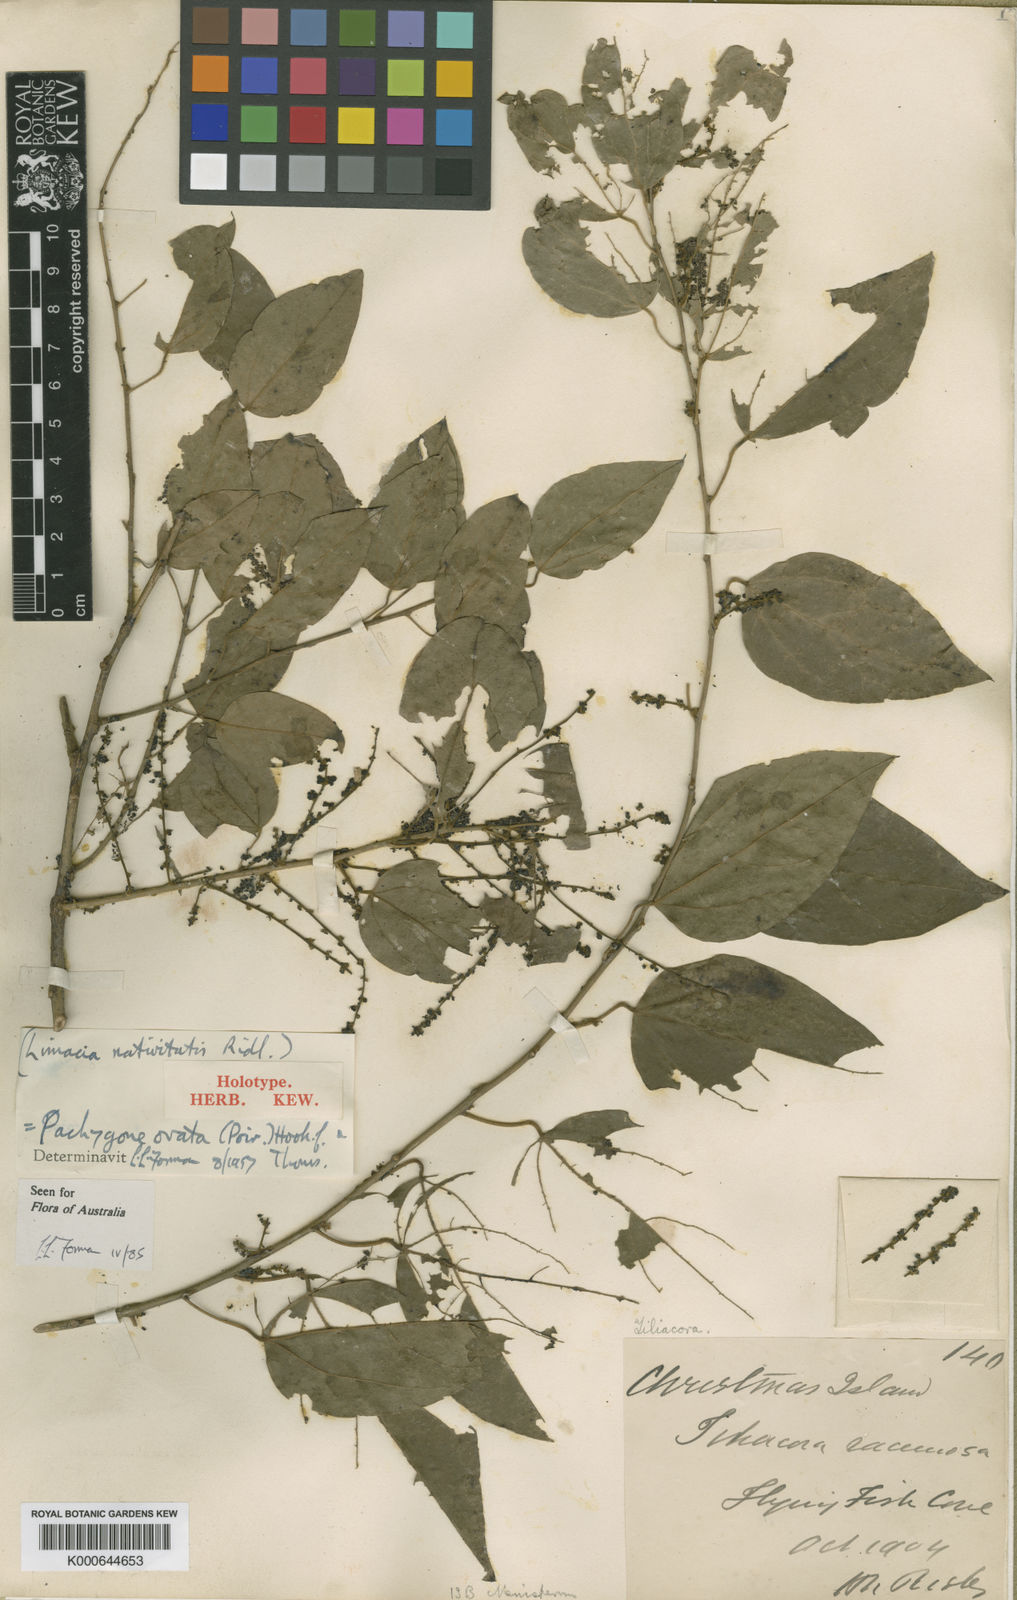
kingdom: Plantae
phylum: Tracheophyta
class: Magnoliopsida
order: Ranunculales
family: Menispermaceae
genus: Pachygone
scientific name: Pachygone ovata
